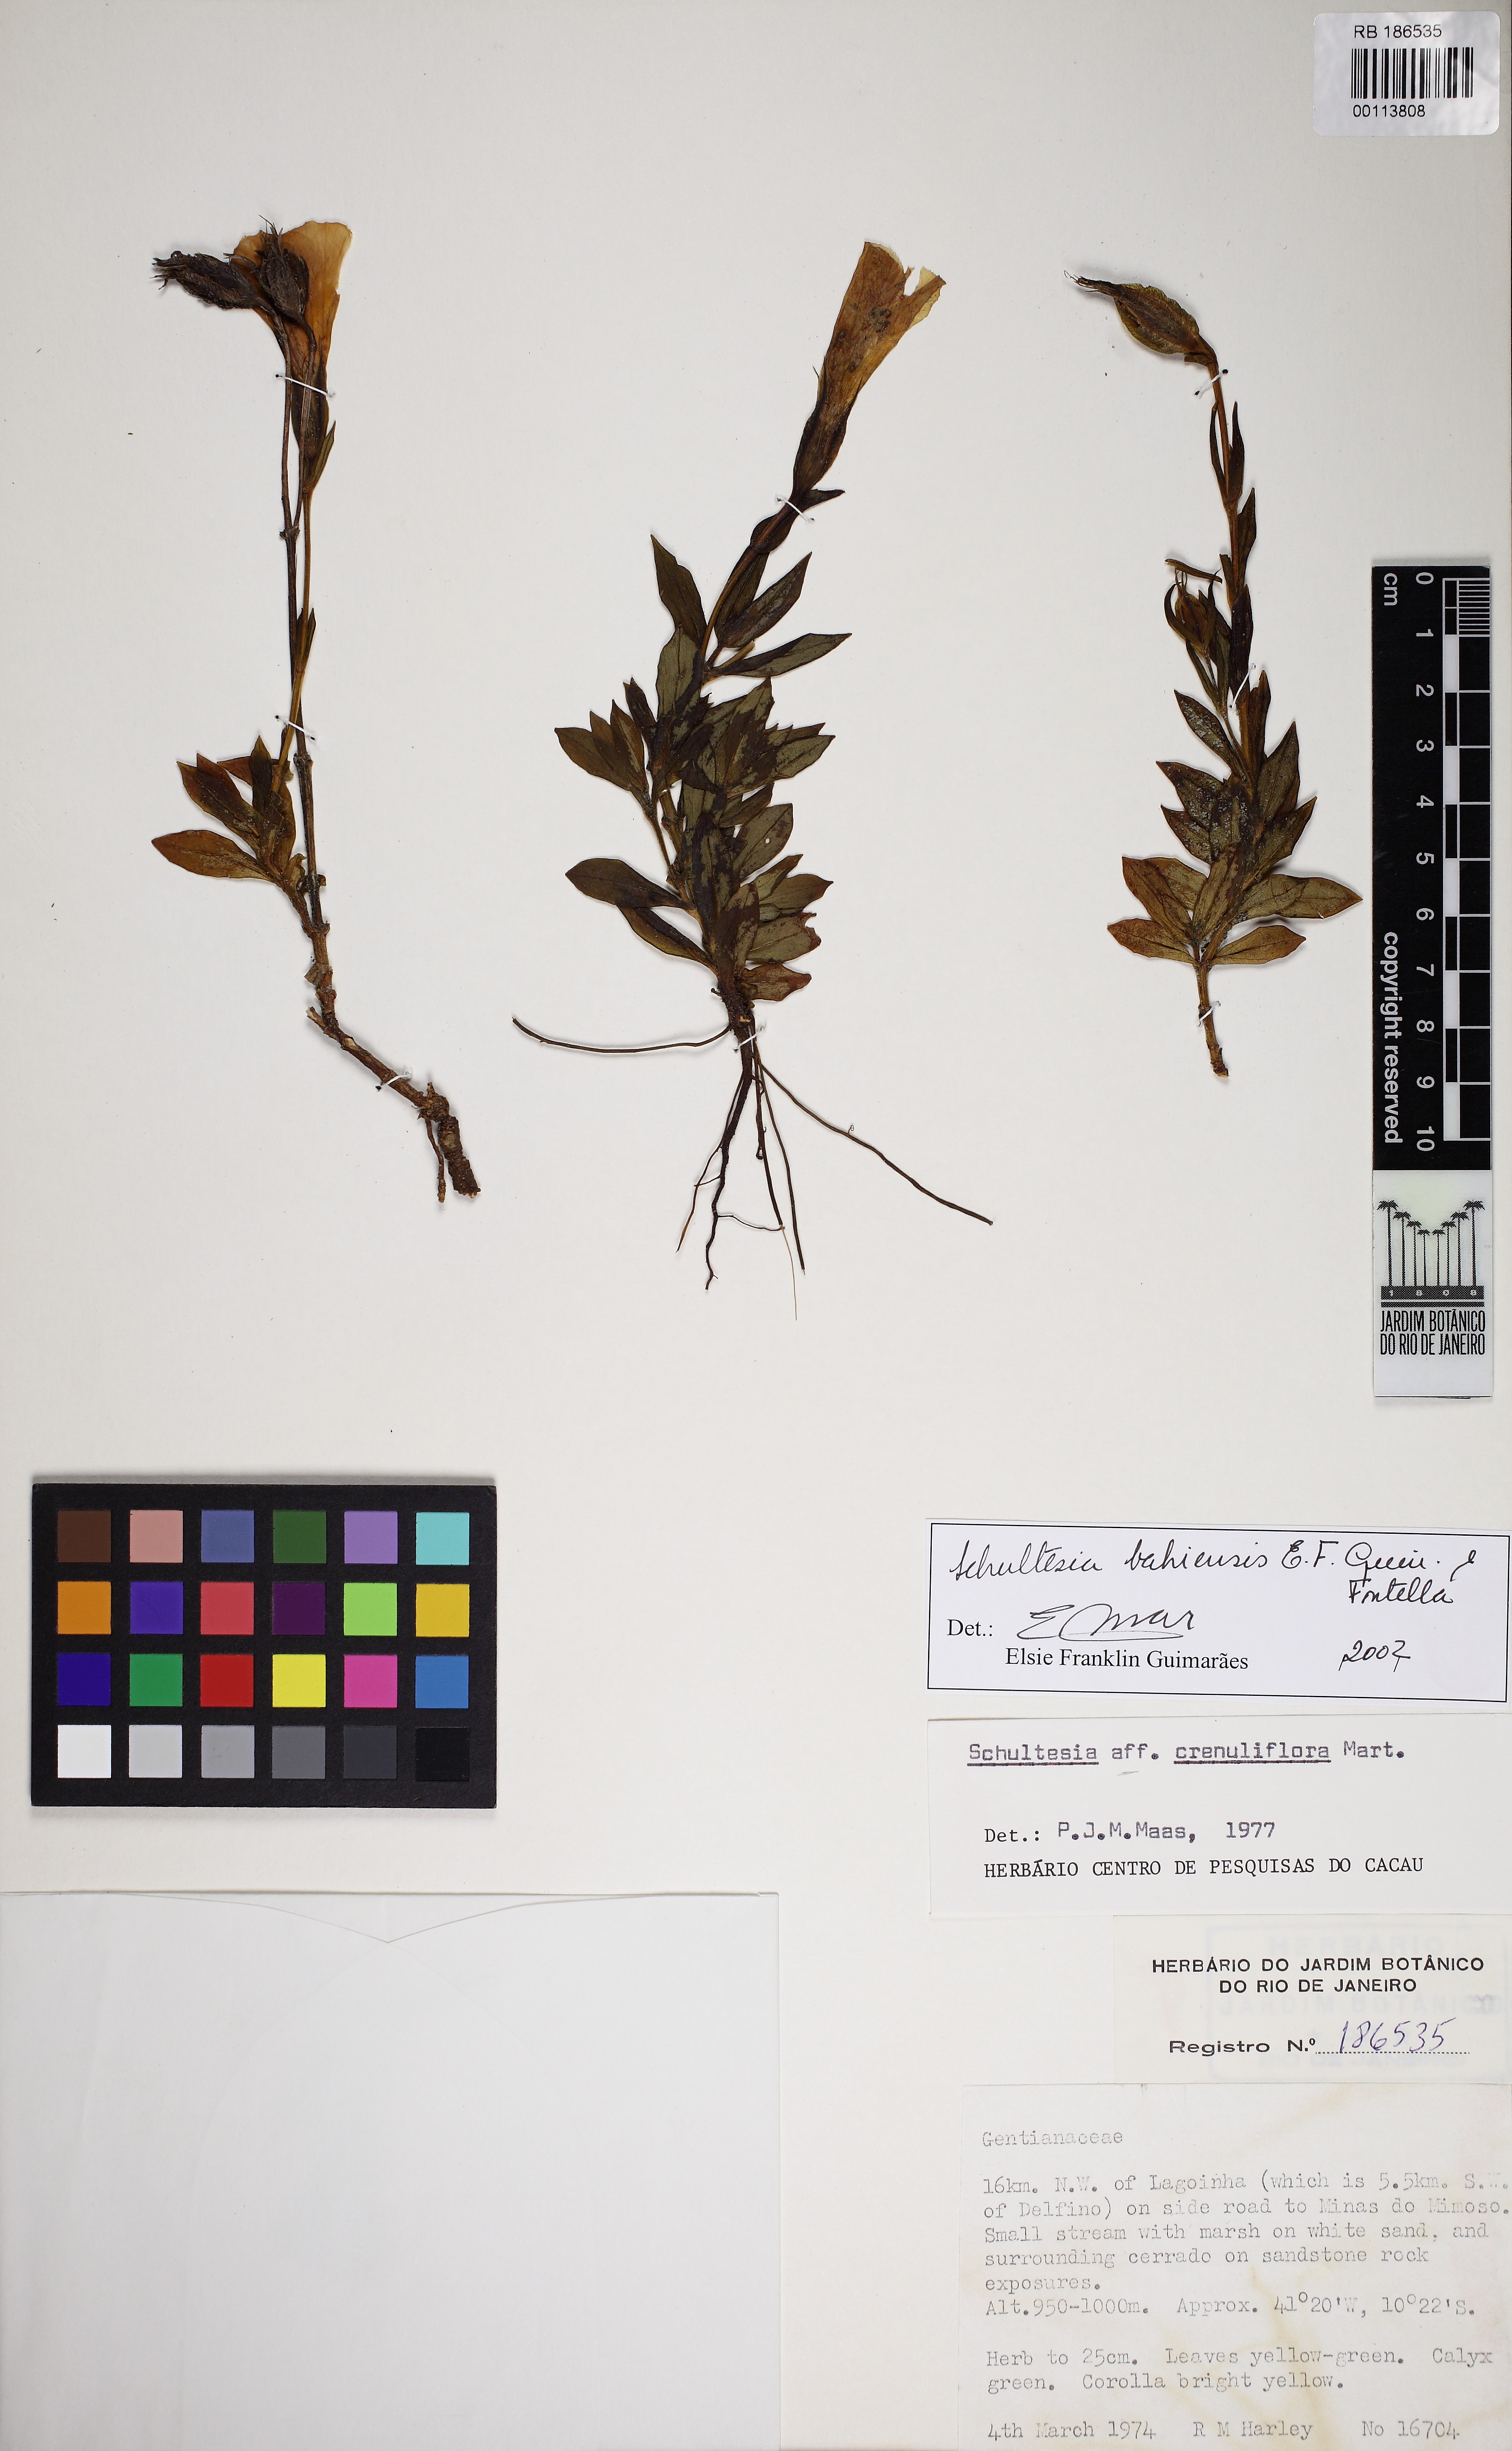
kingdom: Plantae
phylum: Tracheophyta
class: Magnoliopsida
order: Gentianales
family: Gentianaceae
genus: Schultesia
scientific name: Schultesia bahiensis
